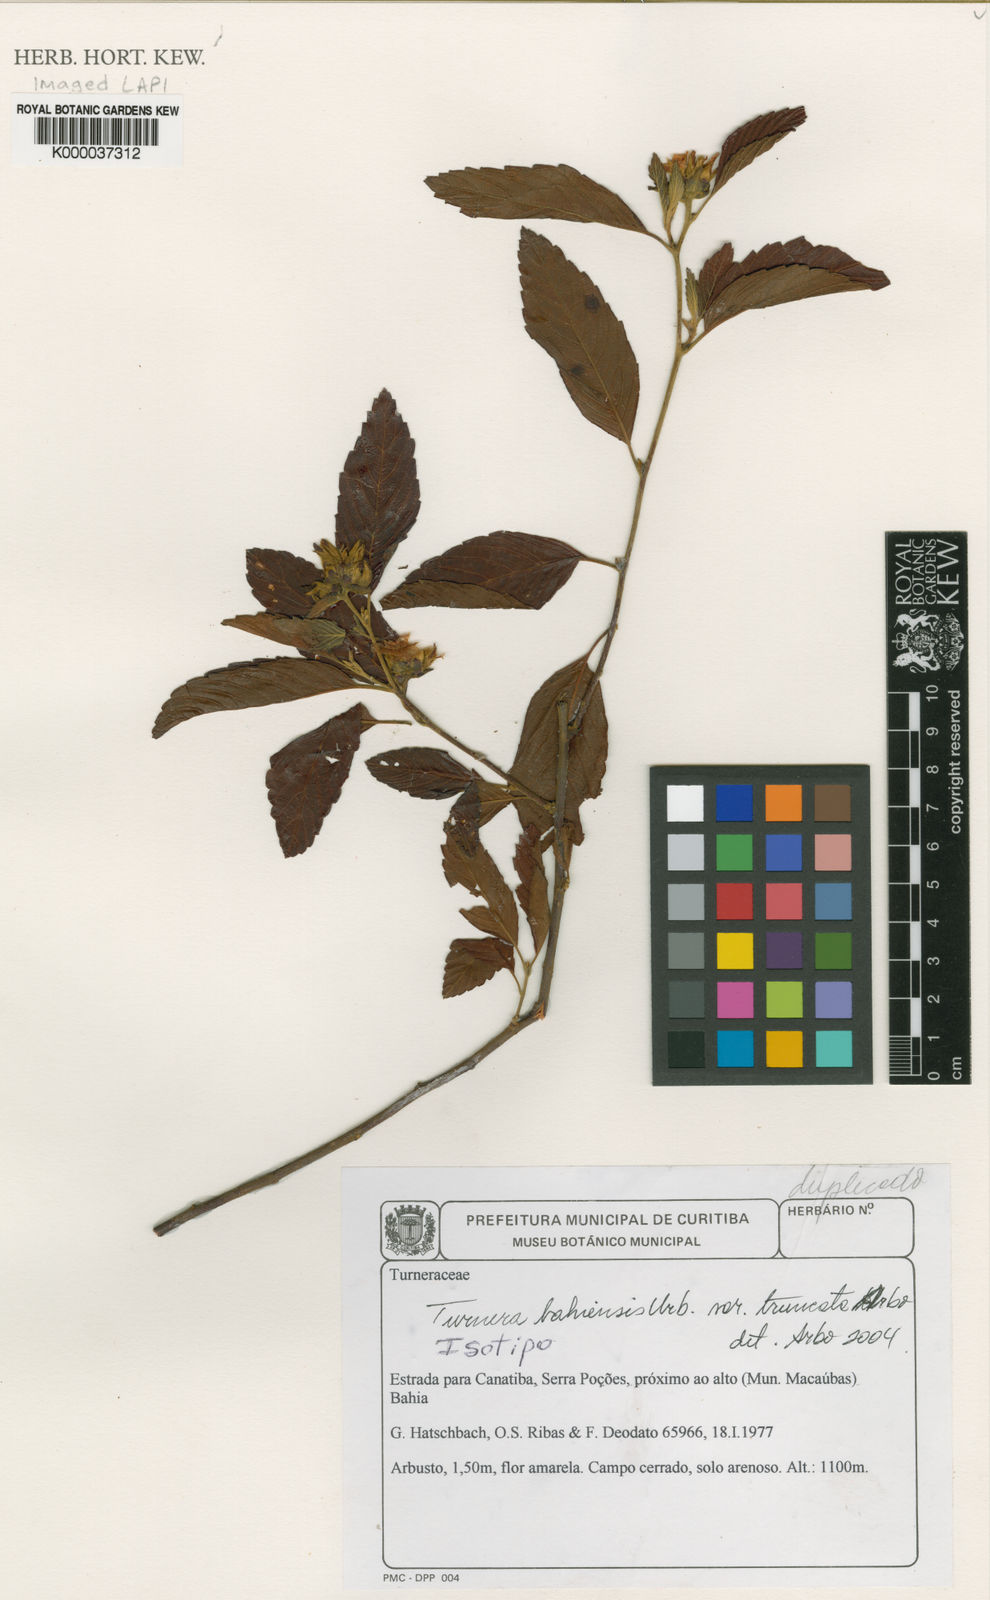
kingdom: Plantae
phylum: Tracheophyta
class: Magnoliopsida
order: Malpighiales
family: Turneraceae
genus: Turnera
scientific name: Turnera bahiensis
